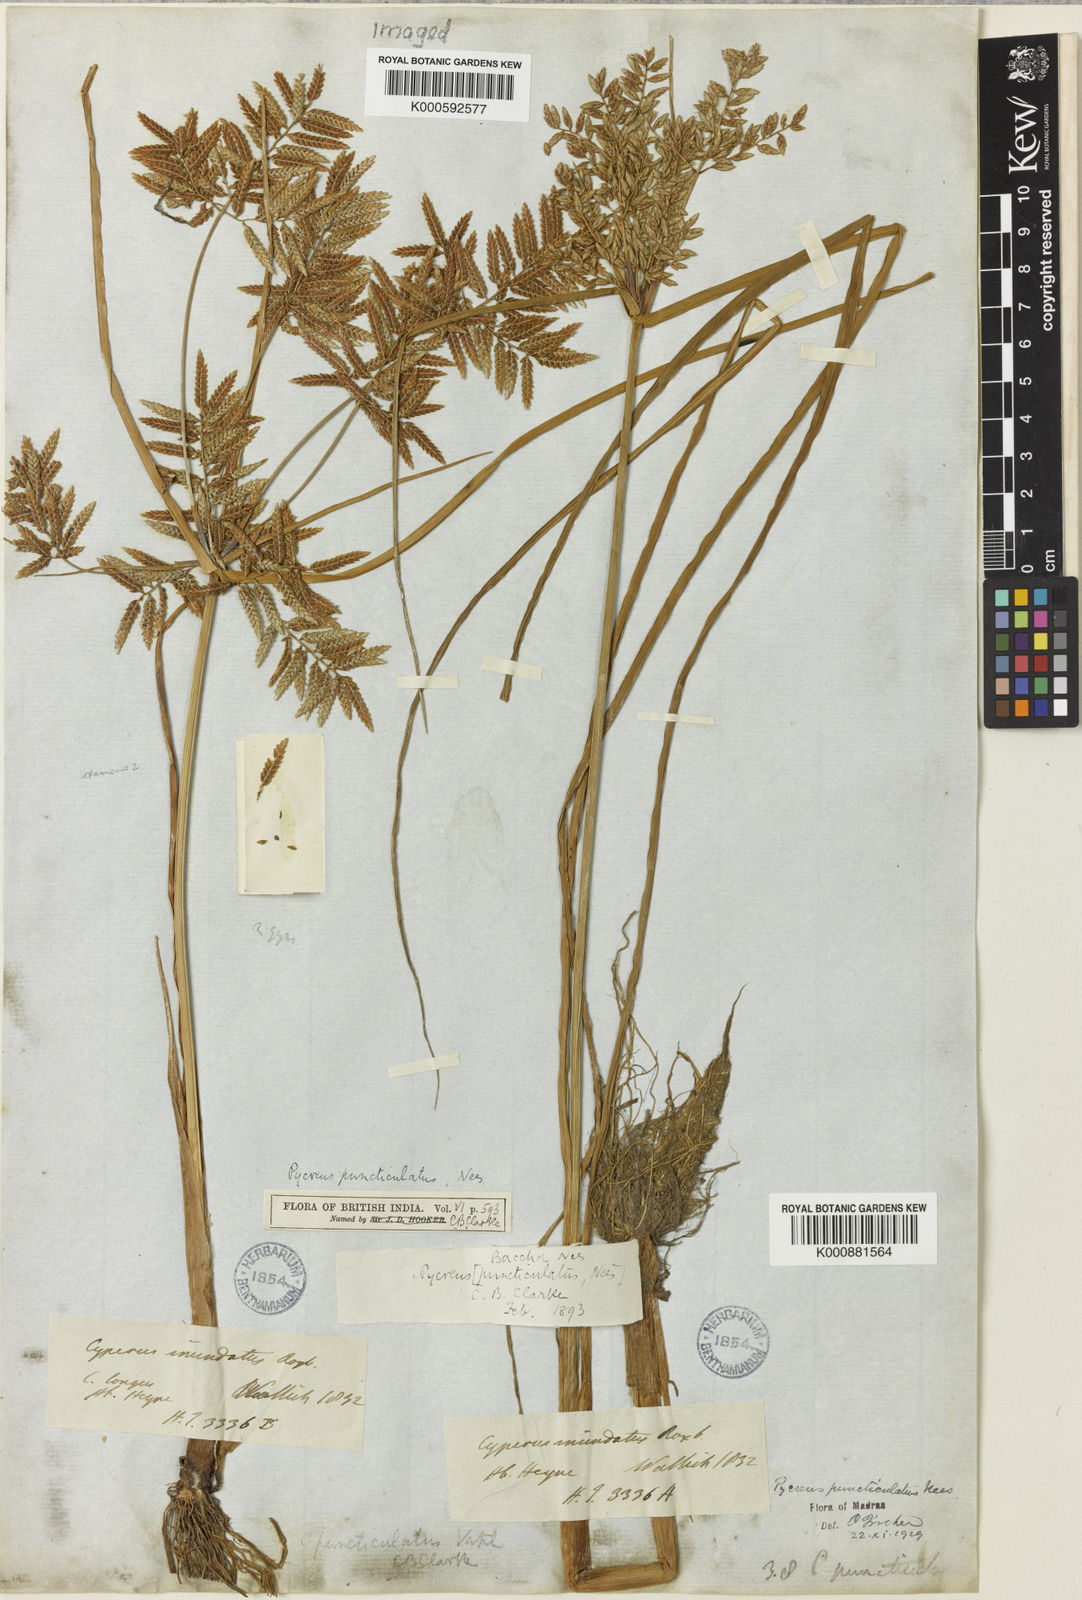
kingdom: Plantae
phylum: Tracheophyta
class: Liliopsida
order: Poales
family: Cyperaceae
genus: Cyperus
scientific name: Cyperus puncticulatus
